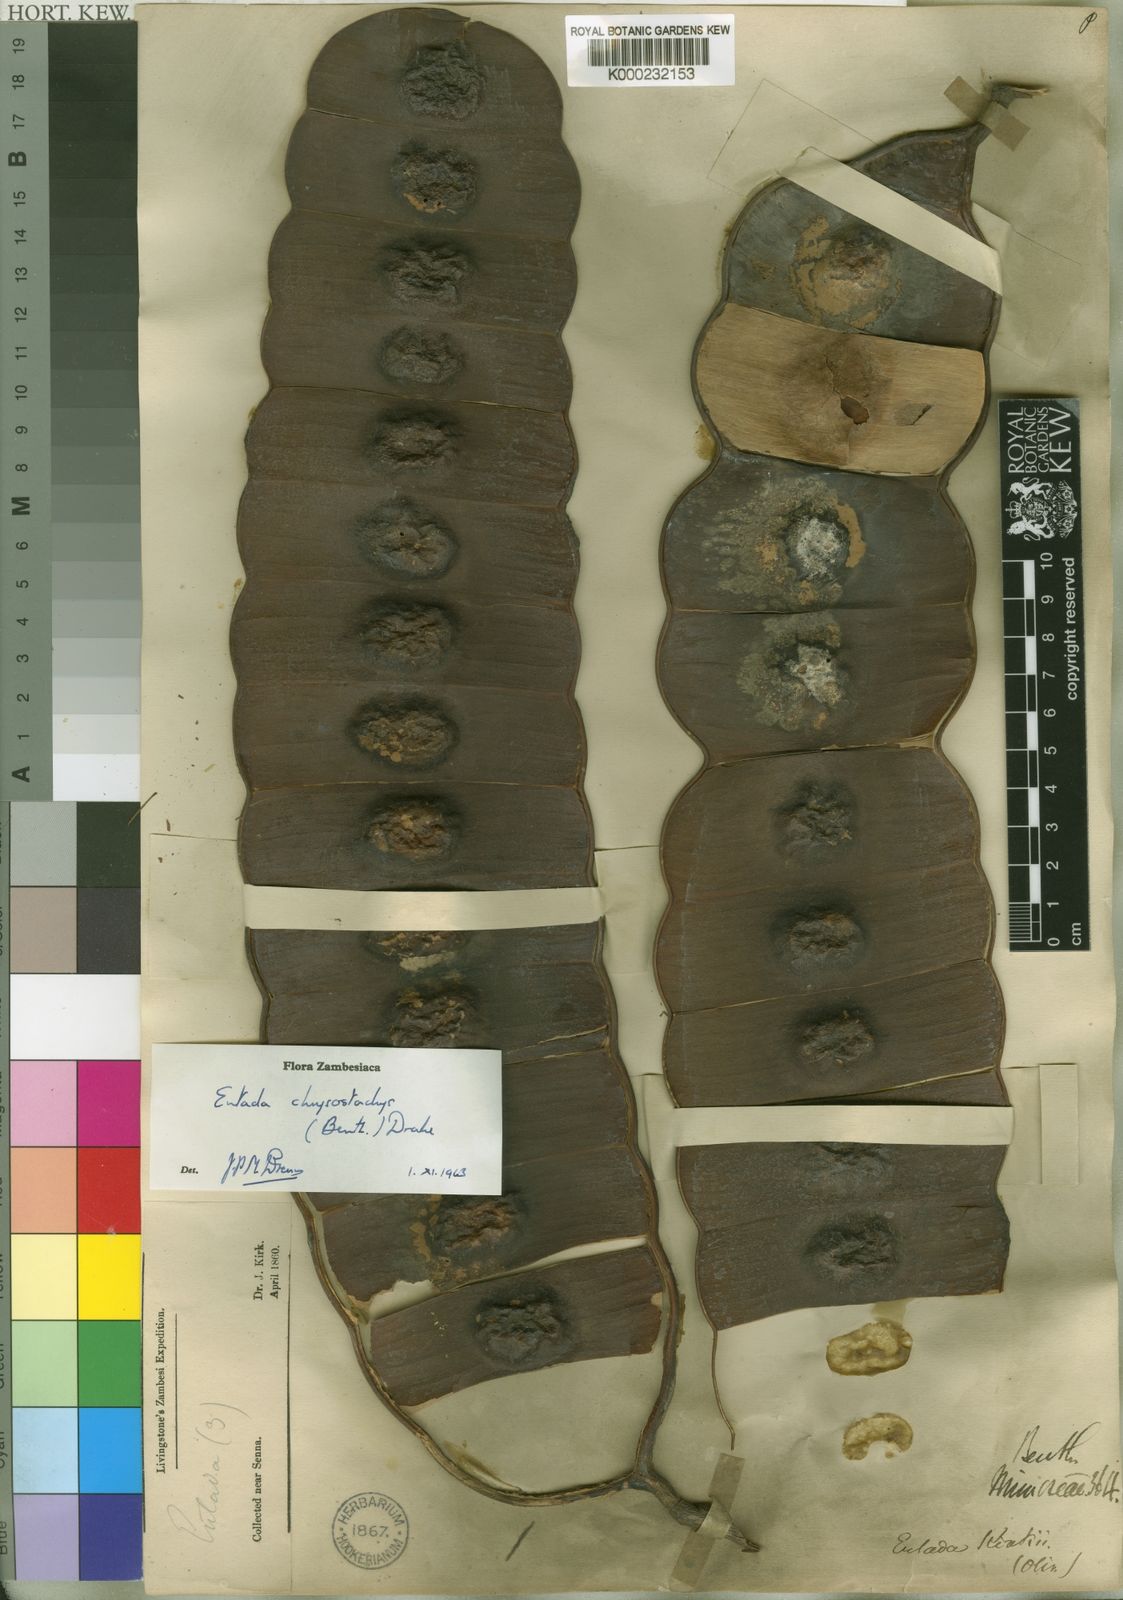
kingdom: Plantae
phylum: Tracheophyta
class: Magnoliopsida
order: Fabales
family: Fabaceae
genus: Entada
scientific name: Entada chrysostachys
